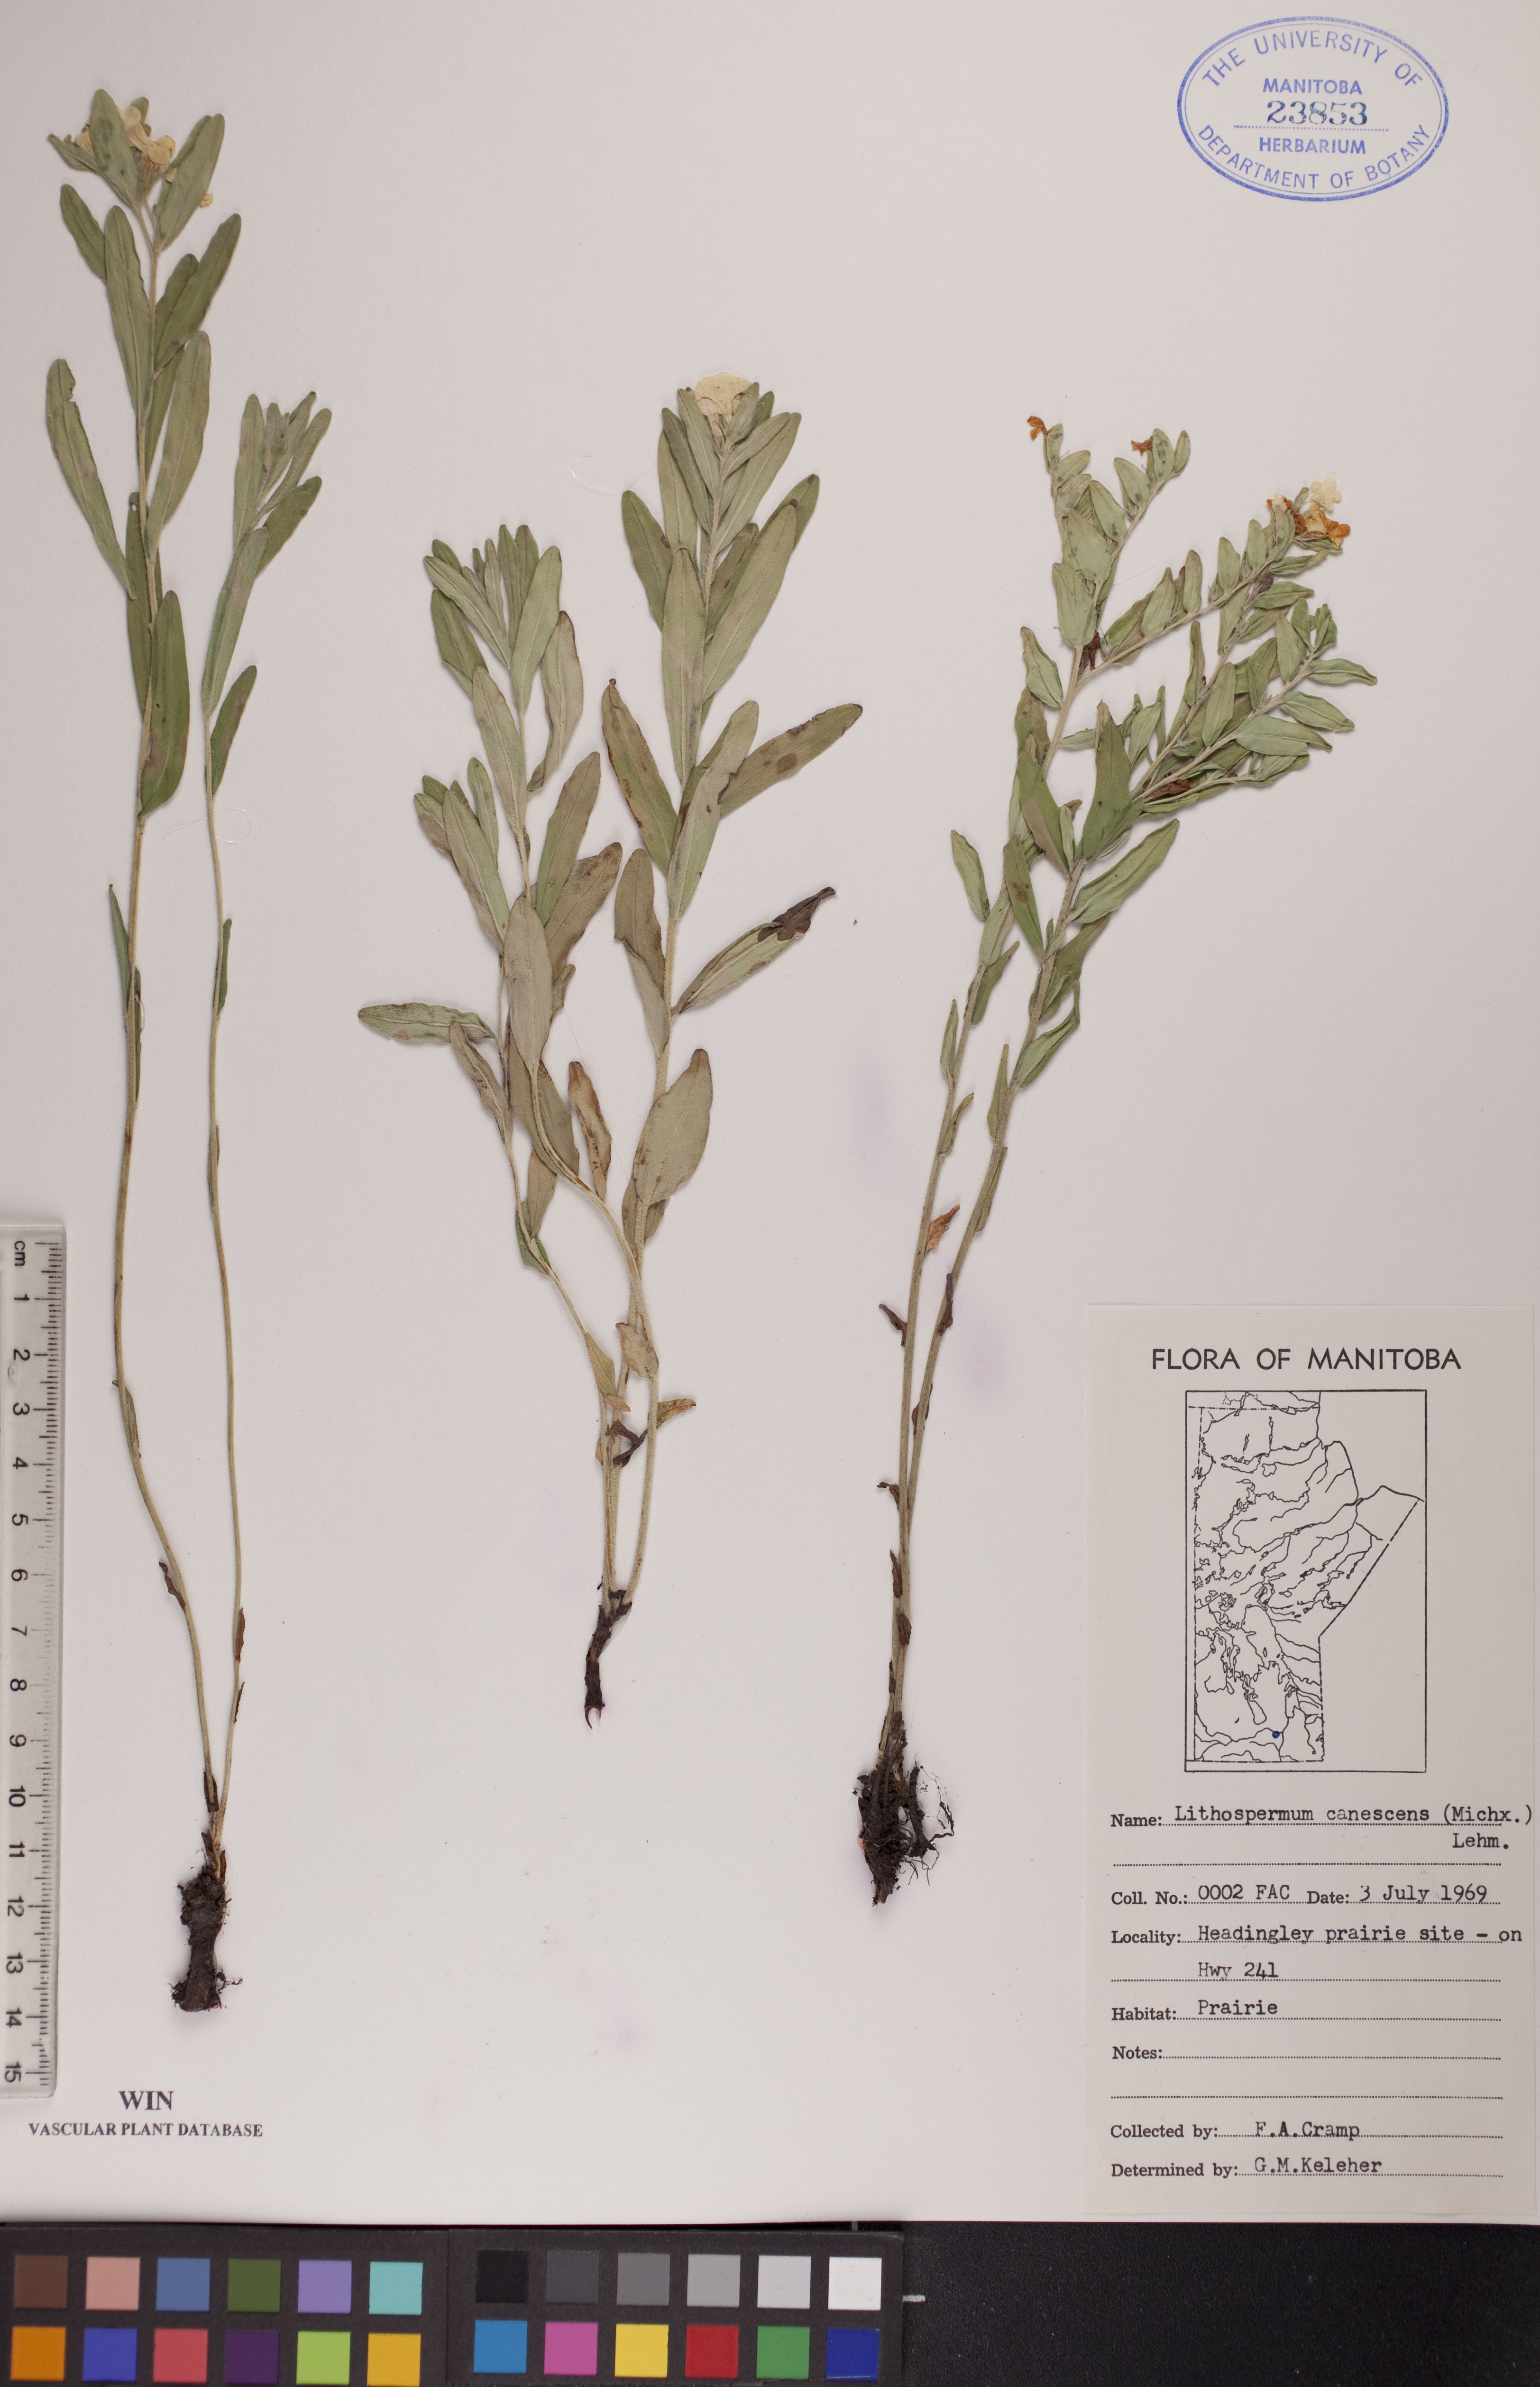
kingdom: Plantae
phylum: Tracheophyta
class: Magnoliopsida
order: Boraginales
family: Boraginaceae
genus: Lithospermum
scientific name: Lithospermum canescens
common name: Hoary puccoon
